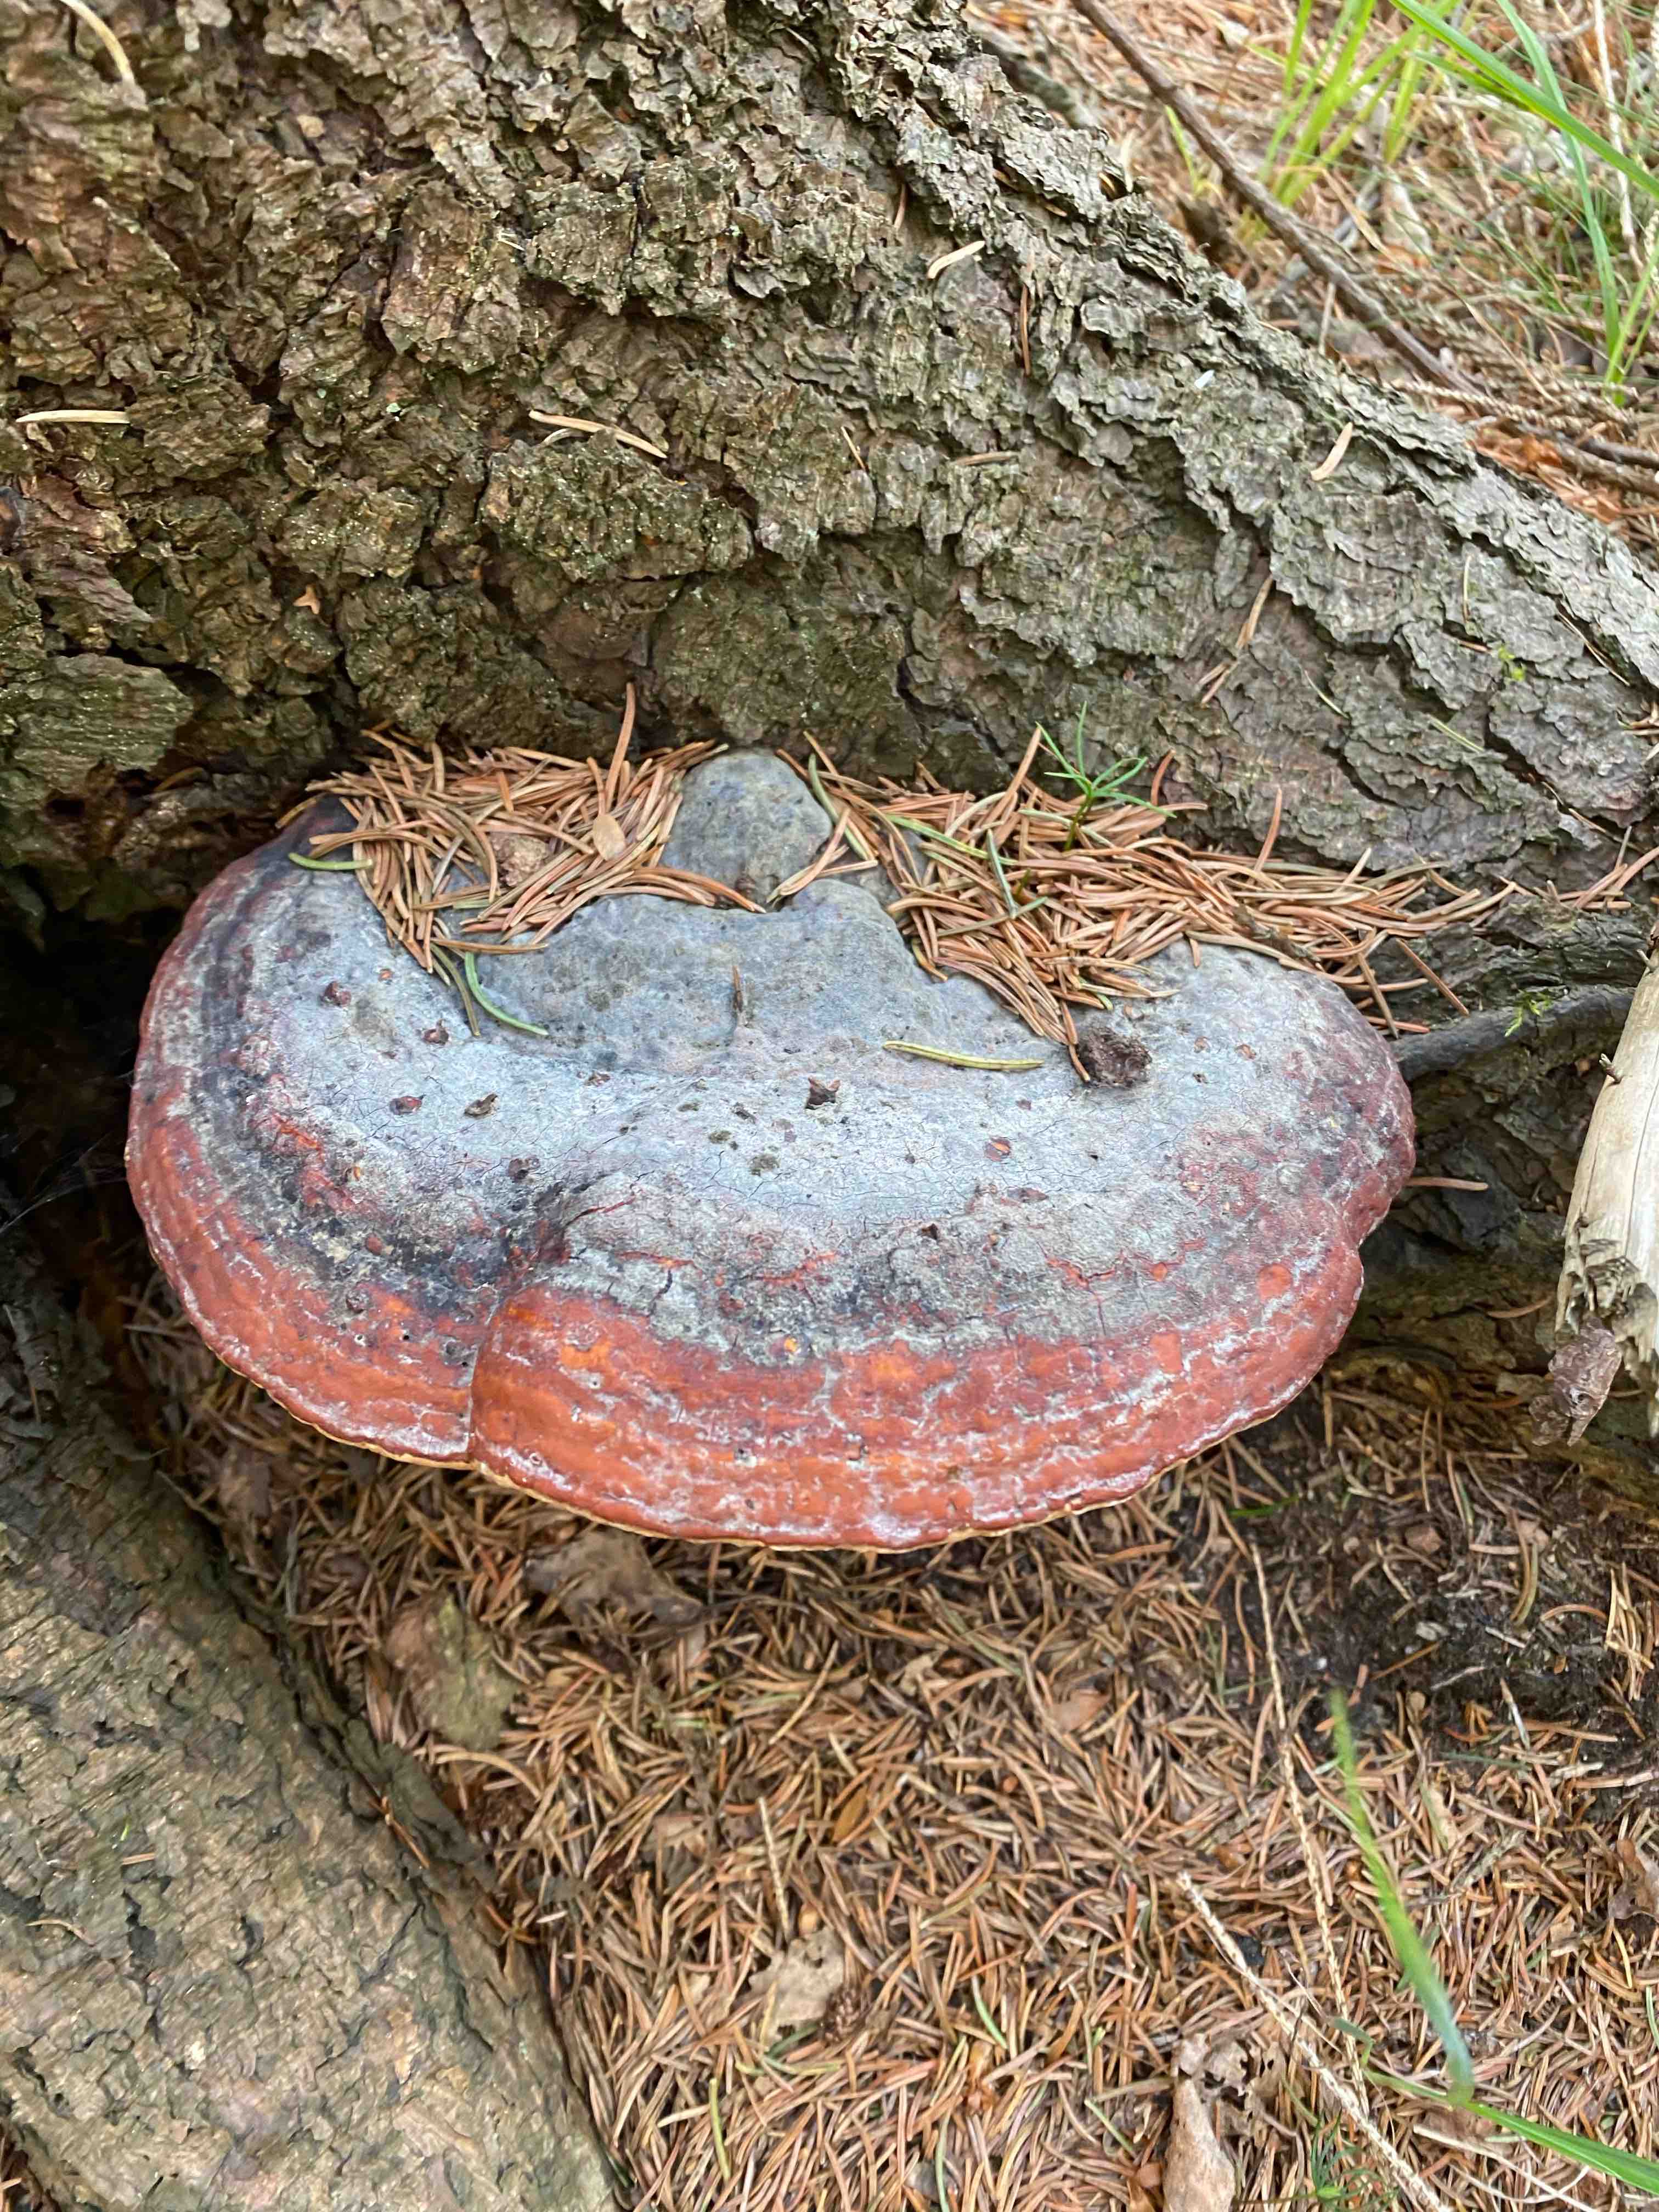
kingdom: Fungi
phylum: Basidiomycota
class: Agaricomycetes
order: Polyporales
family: Fomitopsidaceae
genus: Fomitopsis
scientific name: Fomitopsis pinicola
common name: randbæltet hovporesvamp
